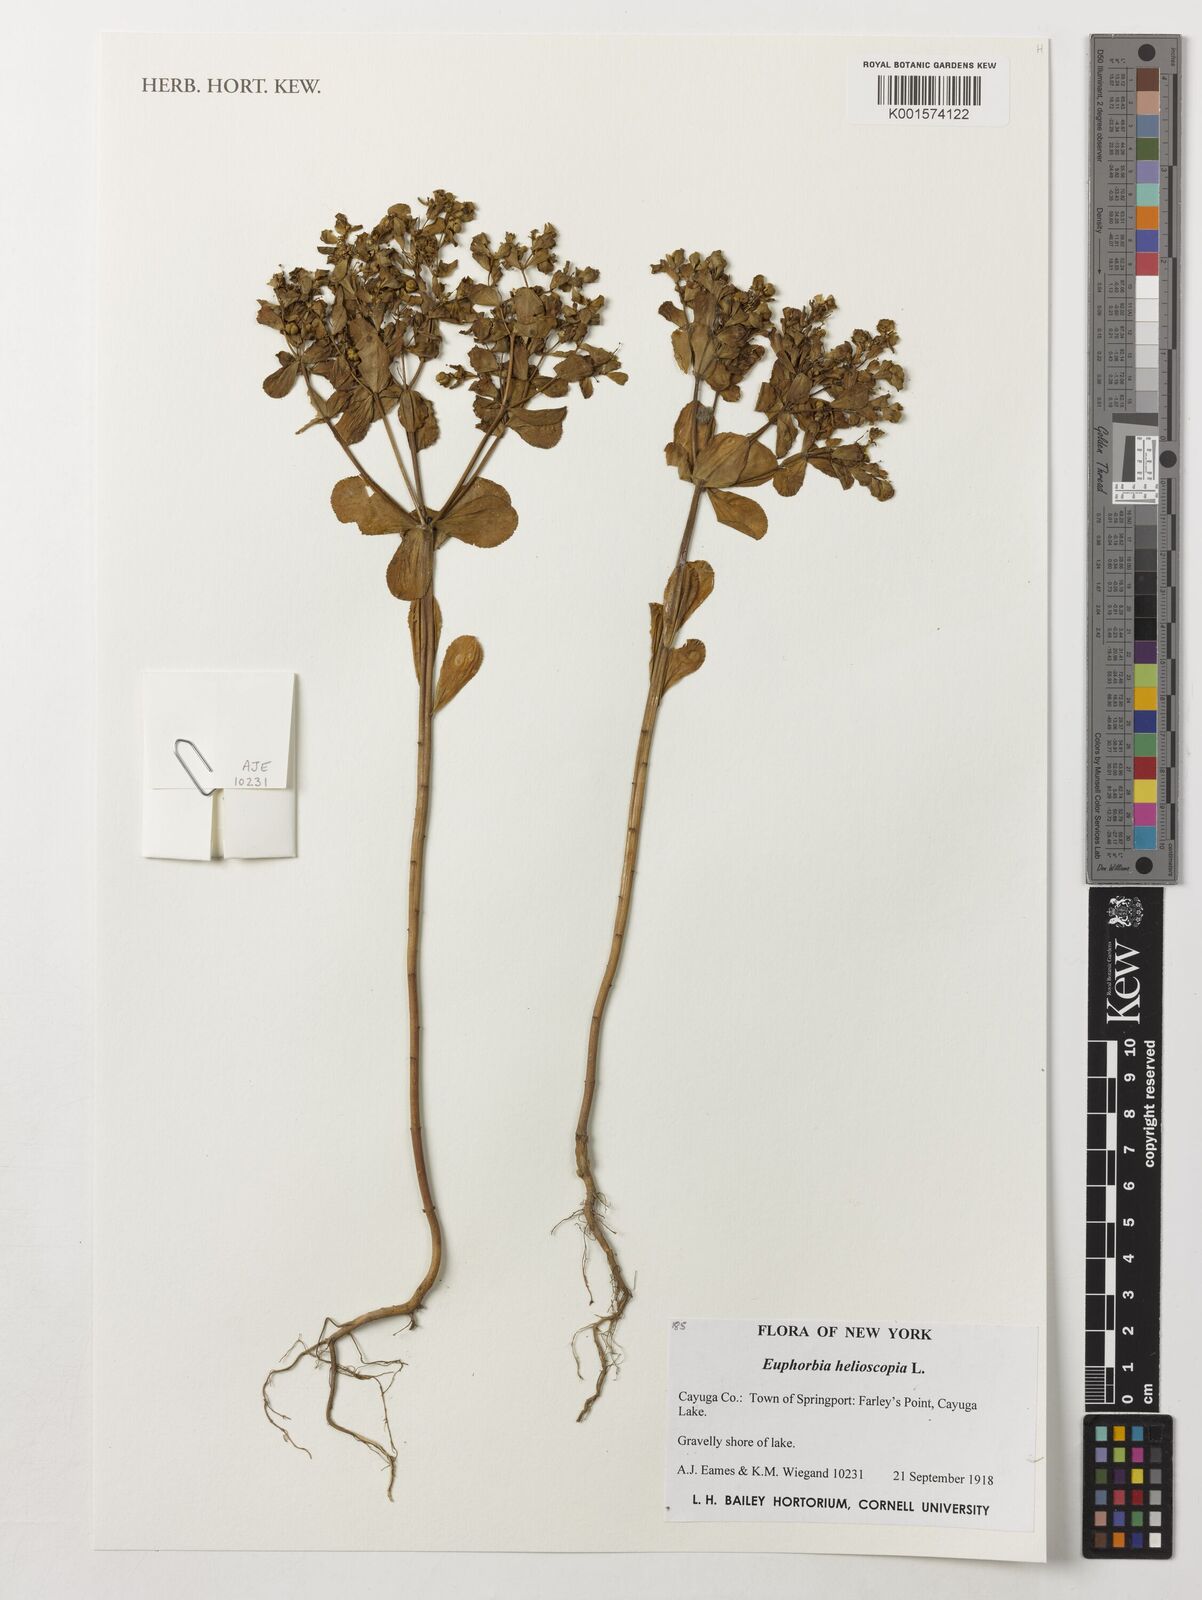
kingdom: Plantae
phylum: Tracheophyta
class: Magnoliopsida
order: Malpighiales
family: Euphorbiaceae
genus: Euphorbia
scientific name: Euphorbia helioscopia
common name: Sun spurge
